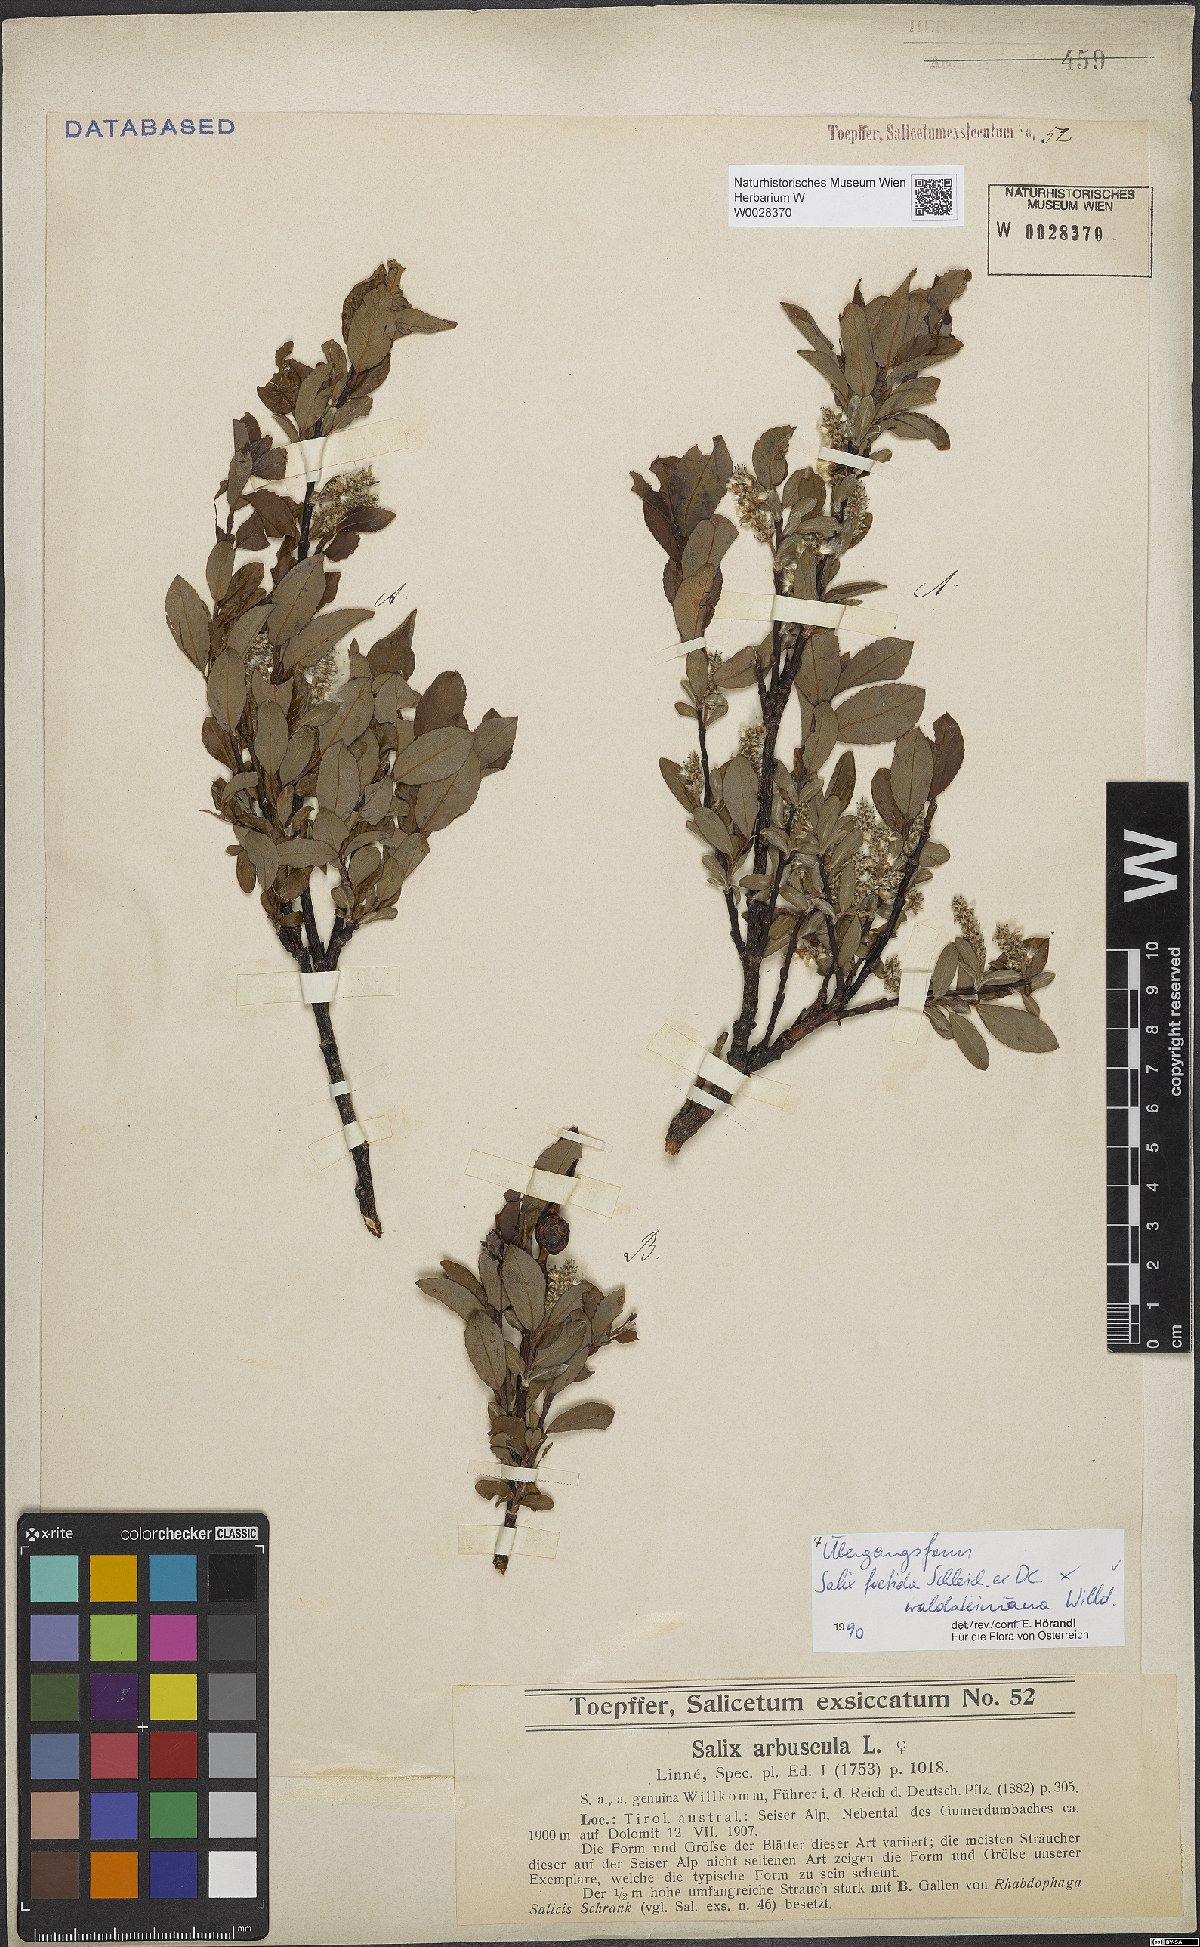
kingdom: Plantae
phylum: Tracheophyta
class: Magnoliopsida
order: Malpighiales
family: Salicaceae
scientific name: Salicaceae
